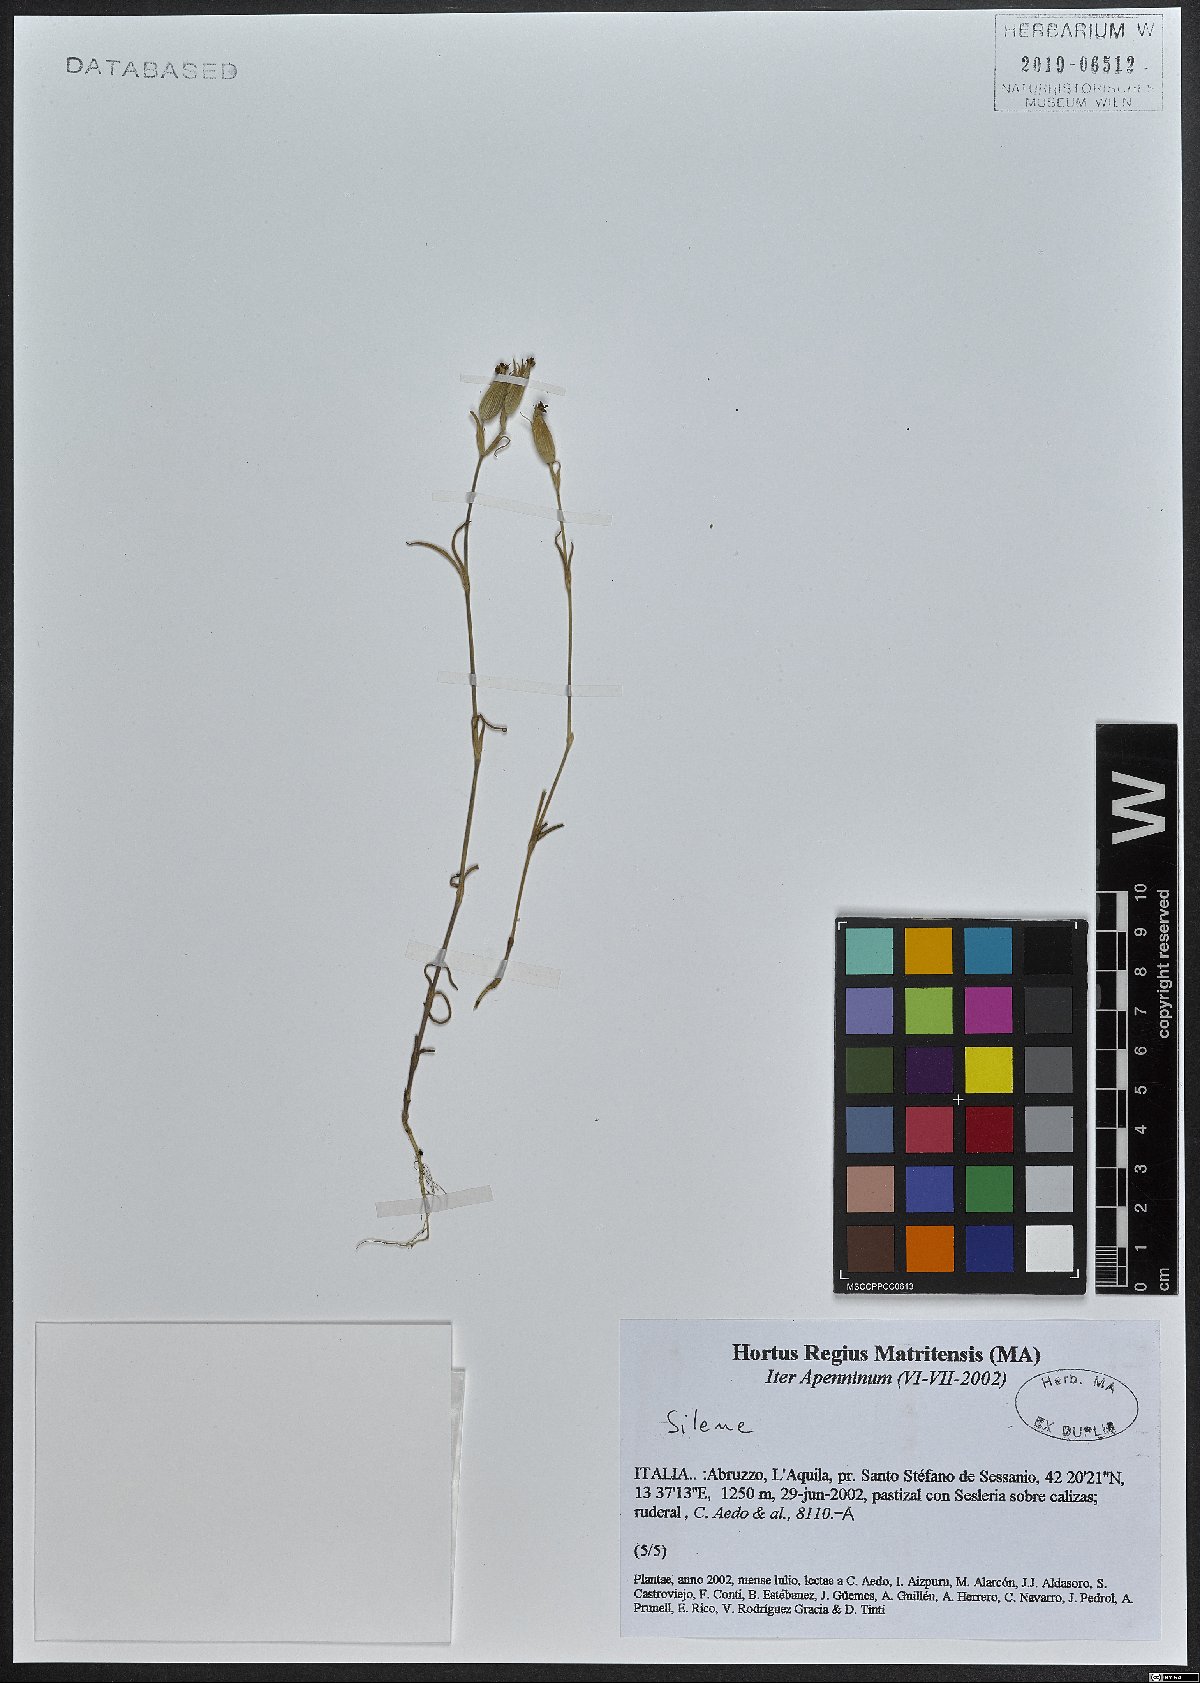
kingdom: Plantae
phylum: Tracheophyta
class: Magnoliopsida
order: Caryophyllales
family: Caryophyllaceae
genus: Silene
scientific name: Silene
